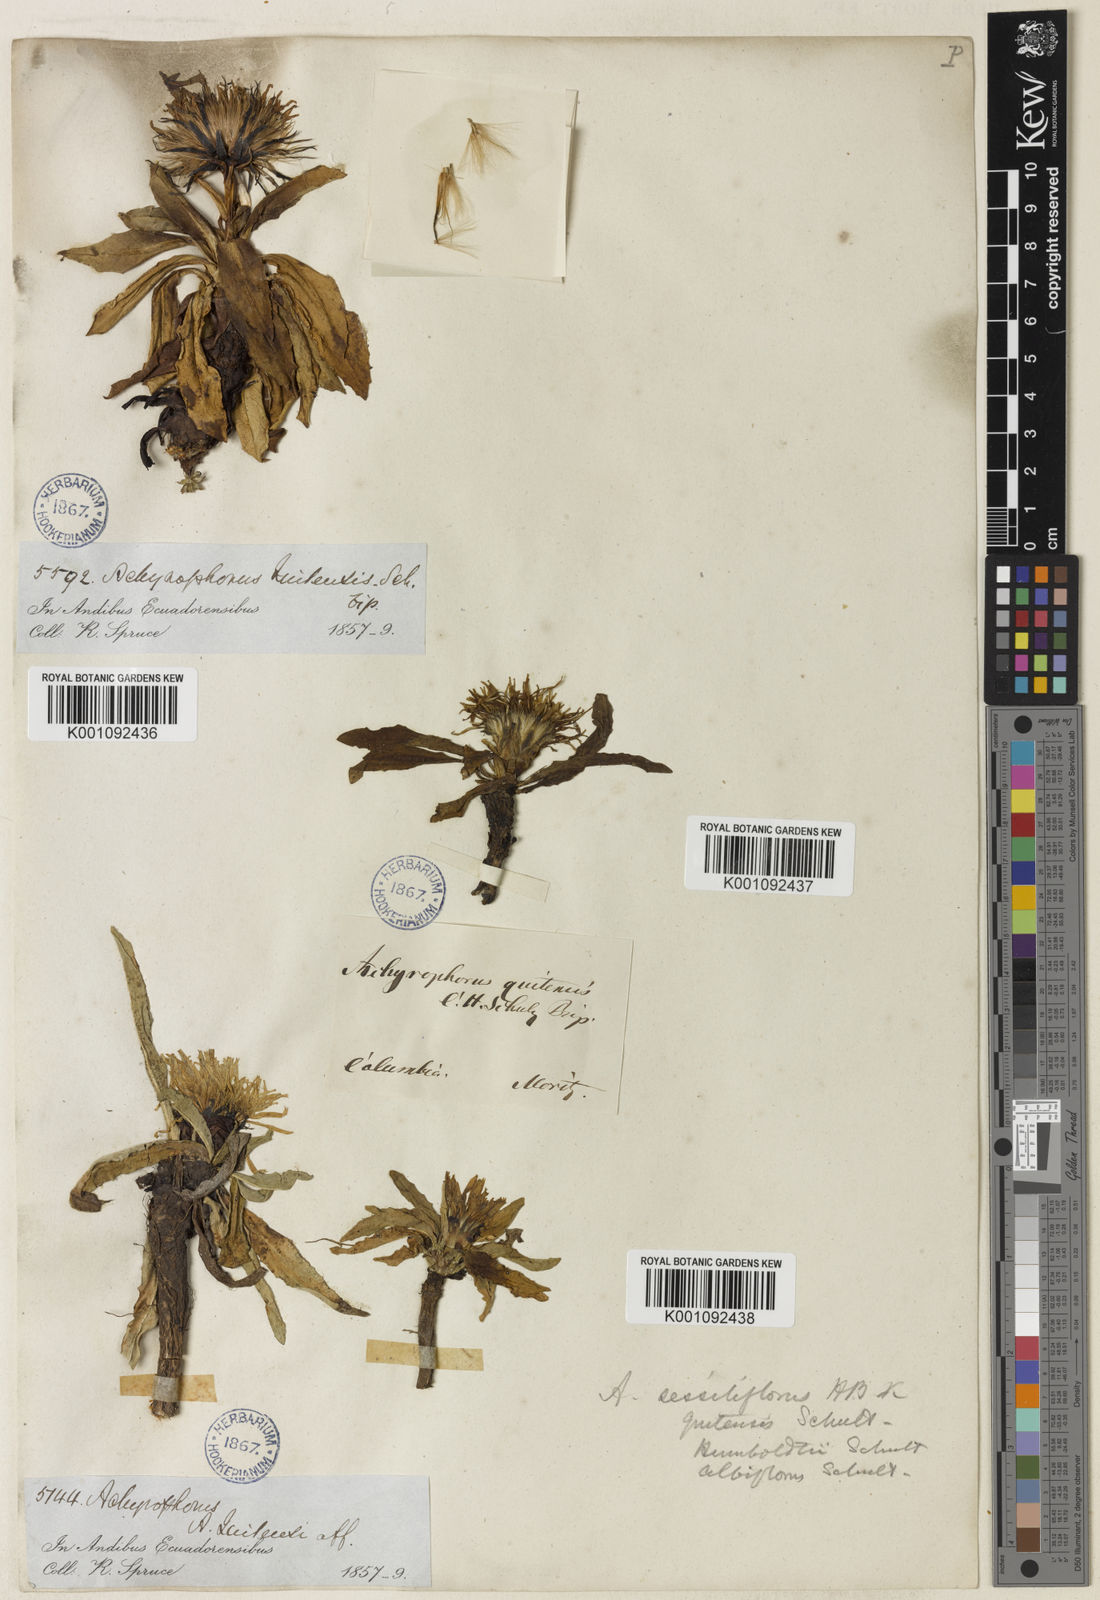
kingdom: Plantae
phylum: Tracheophyta
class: Magnoliopsida
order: Asterales
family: Asteraceae
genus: Hypochaeris
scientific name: Hypochaeris
